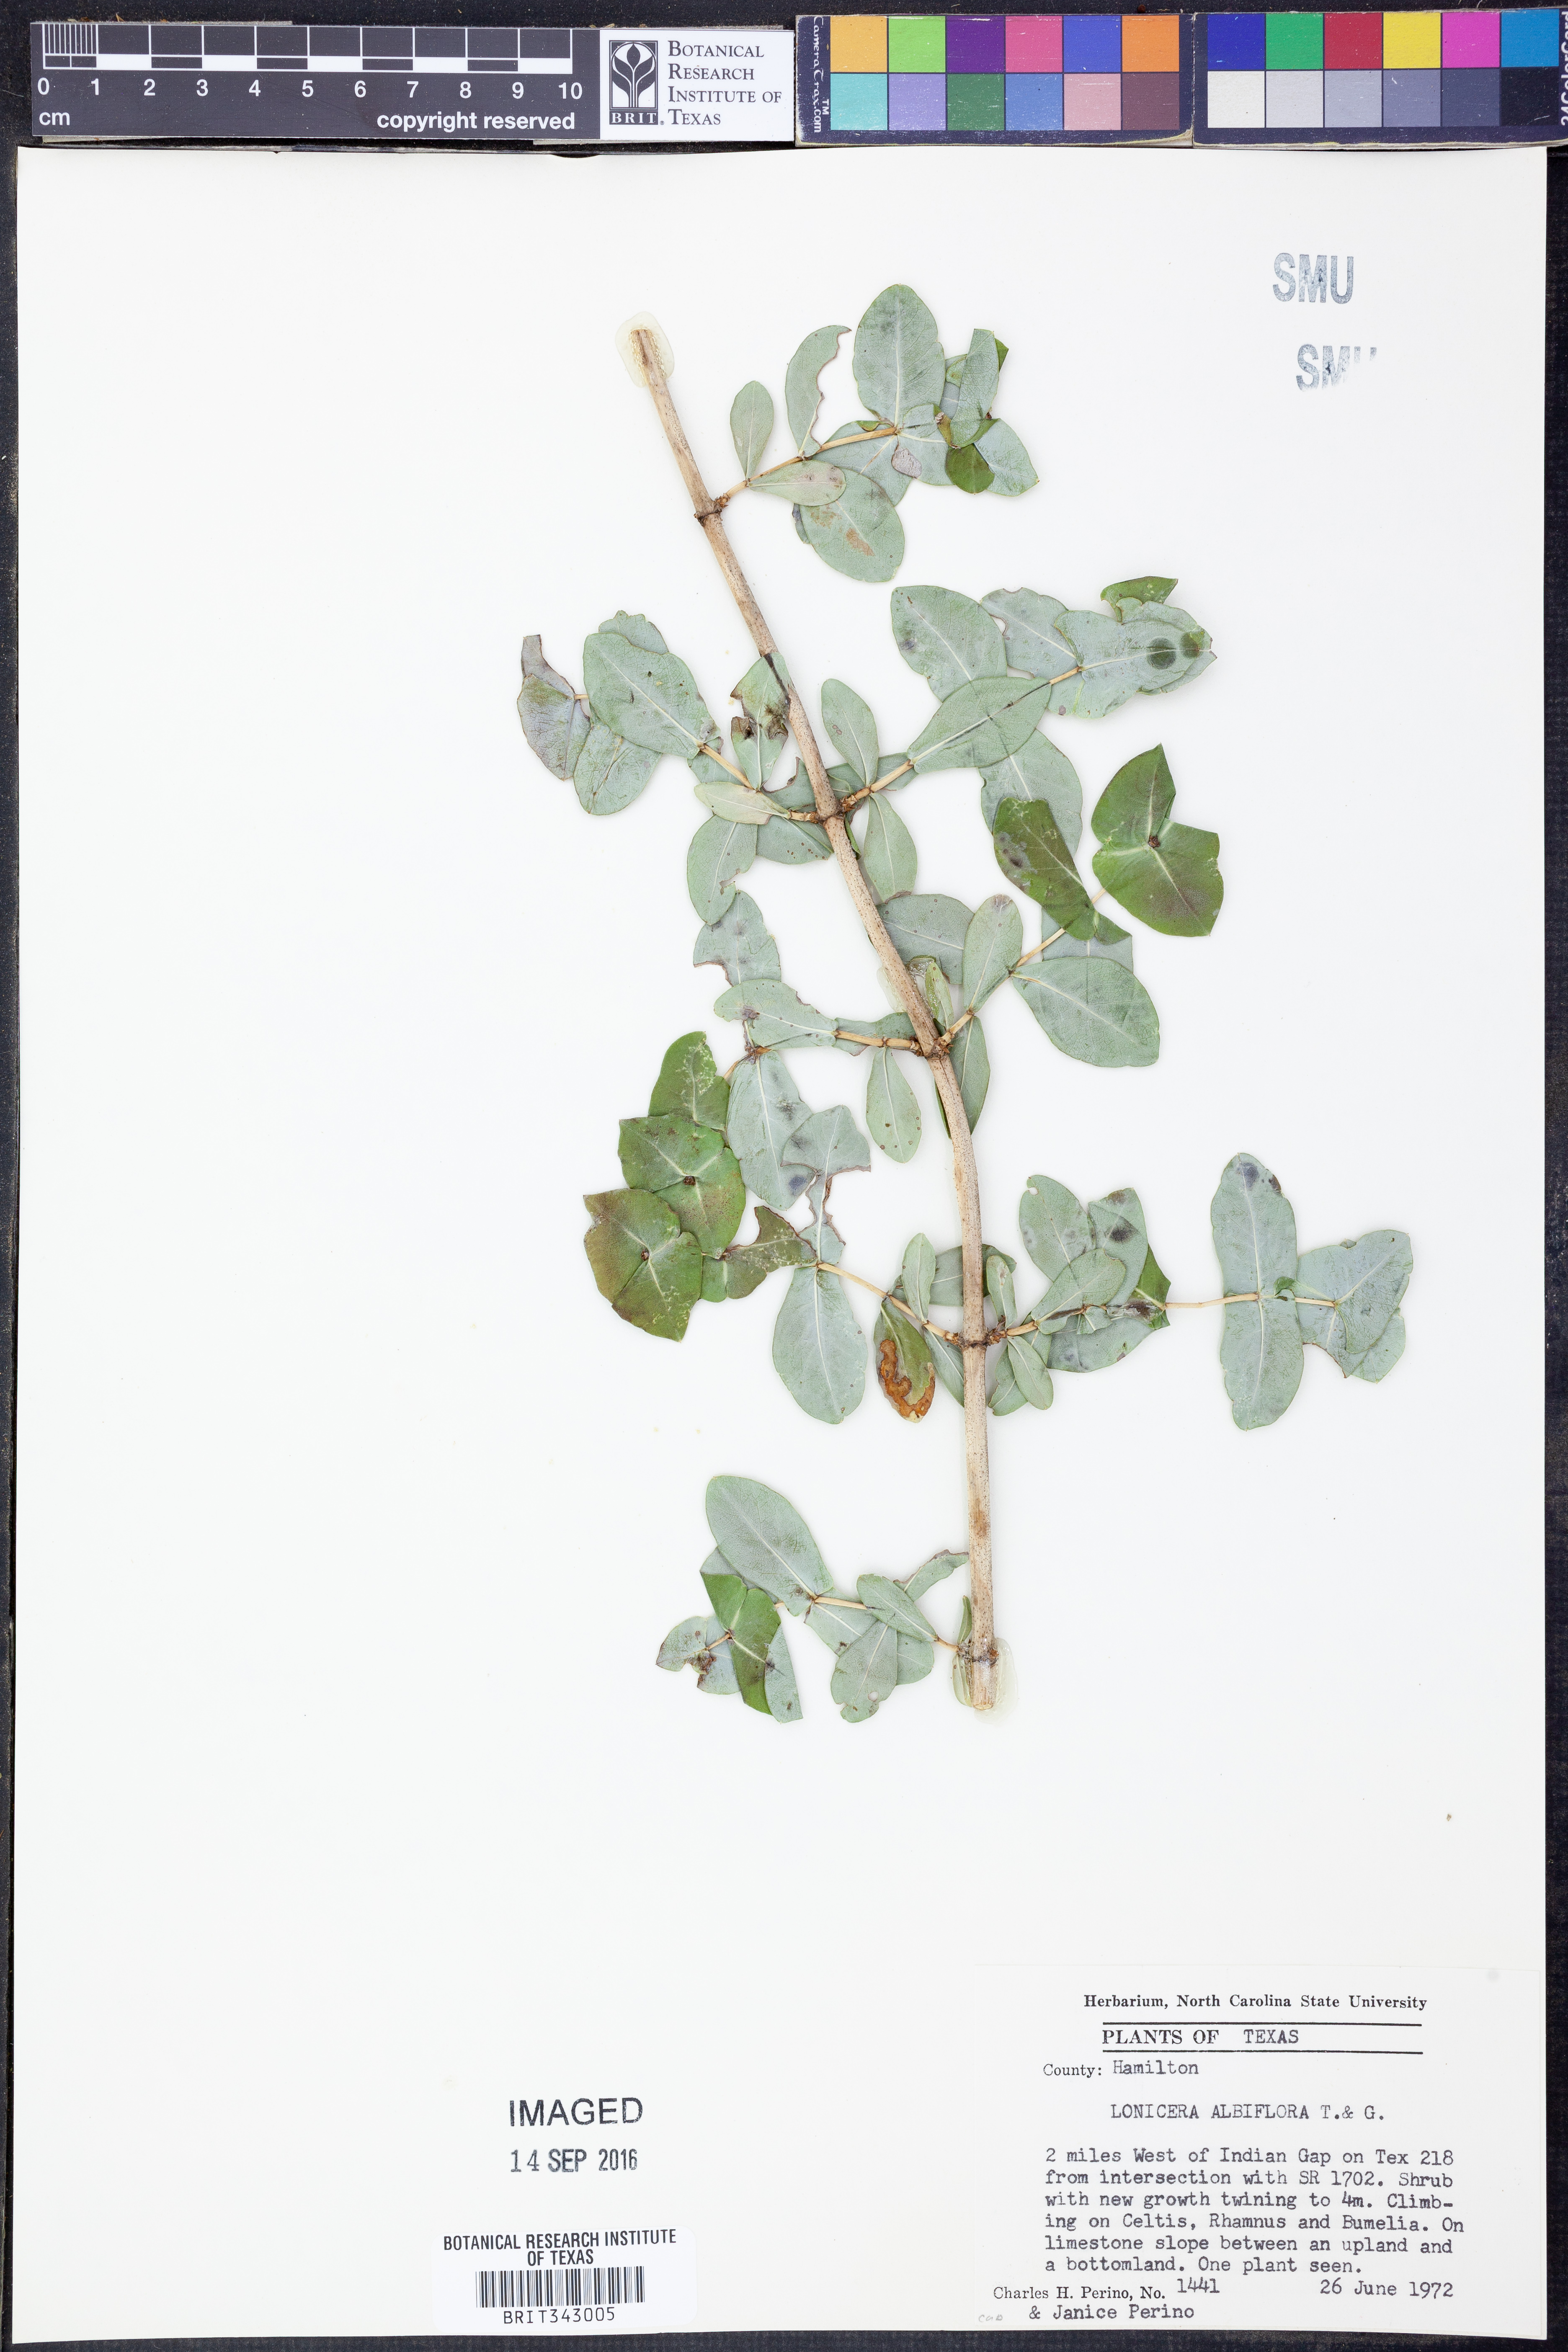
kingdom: Plantae
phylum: Tracheophyta
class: Magnoliopsida
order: Dipsacales
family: Caprifoliaceae
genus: Lonicera
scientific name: Lonicera albiflora
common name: White honeysuckle
